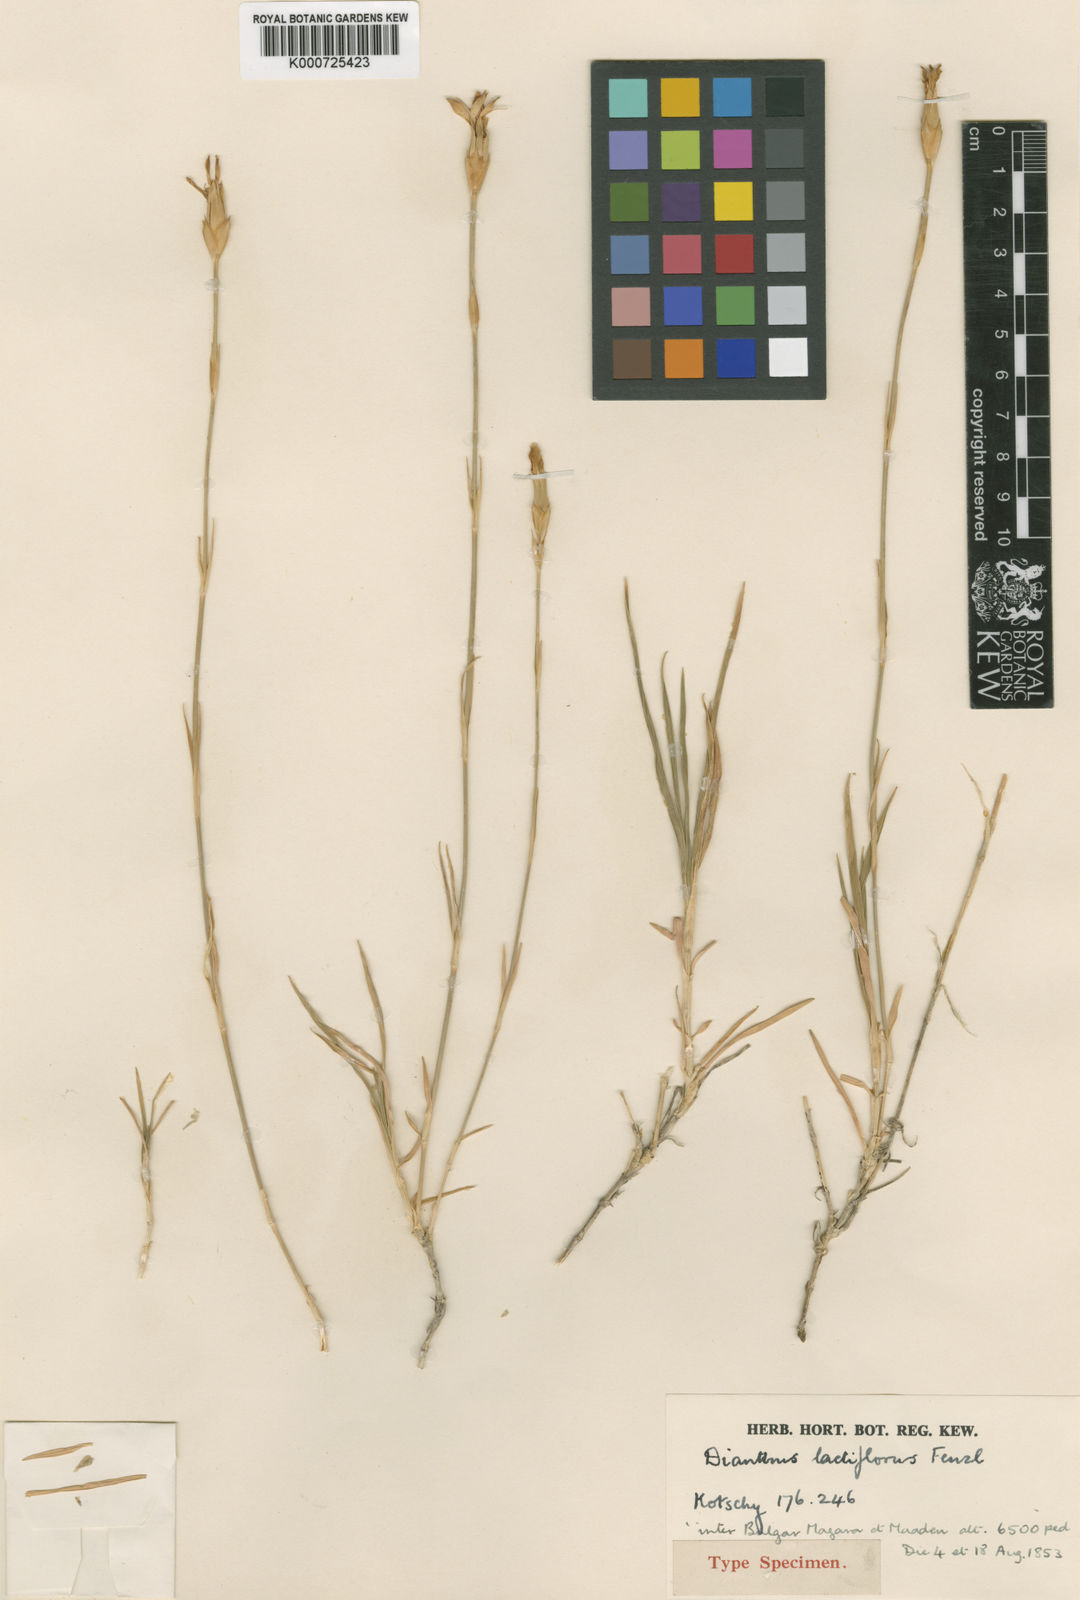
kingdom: Plantae
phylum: Tracheophyta
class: Magnoliopsida
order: Caryophyllales
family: Caryophyllaceae
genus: Dianthus
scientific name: Dianthus lactiflorus
